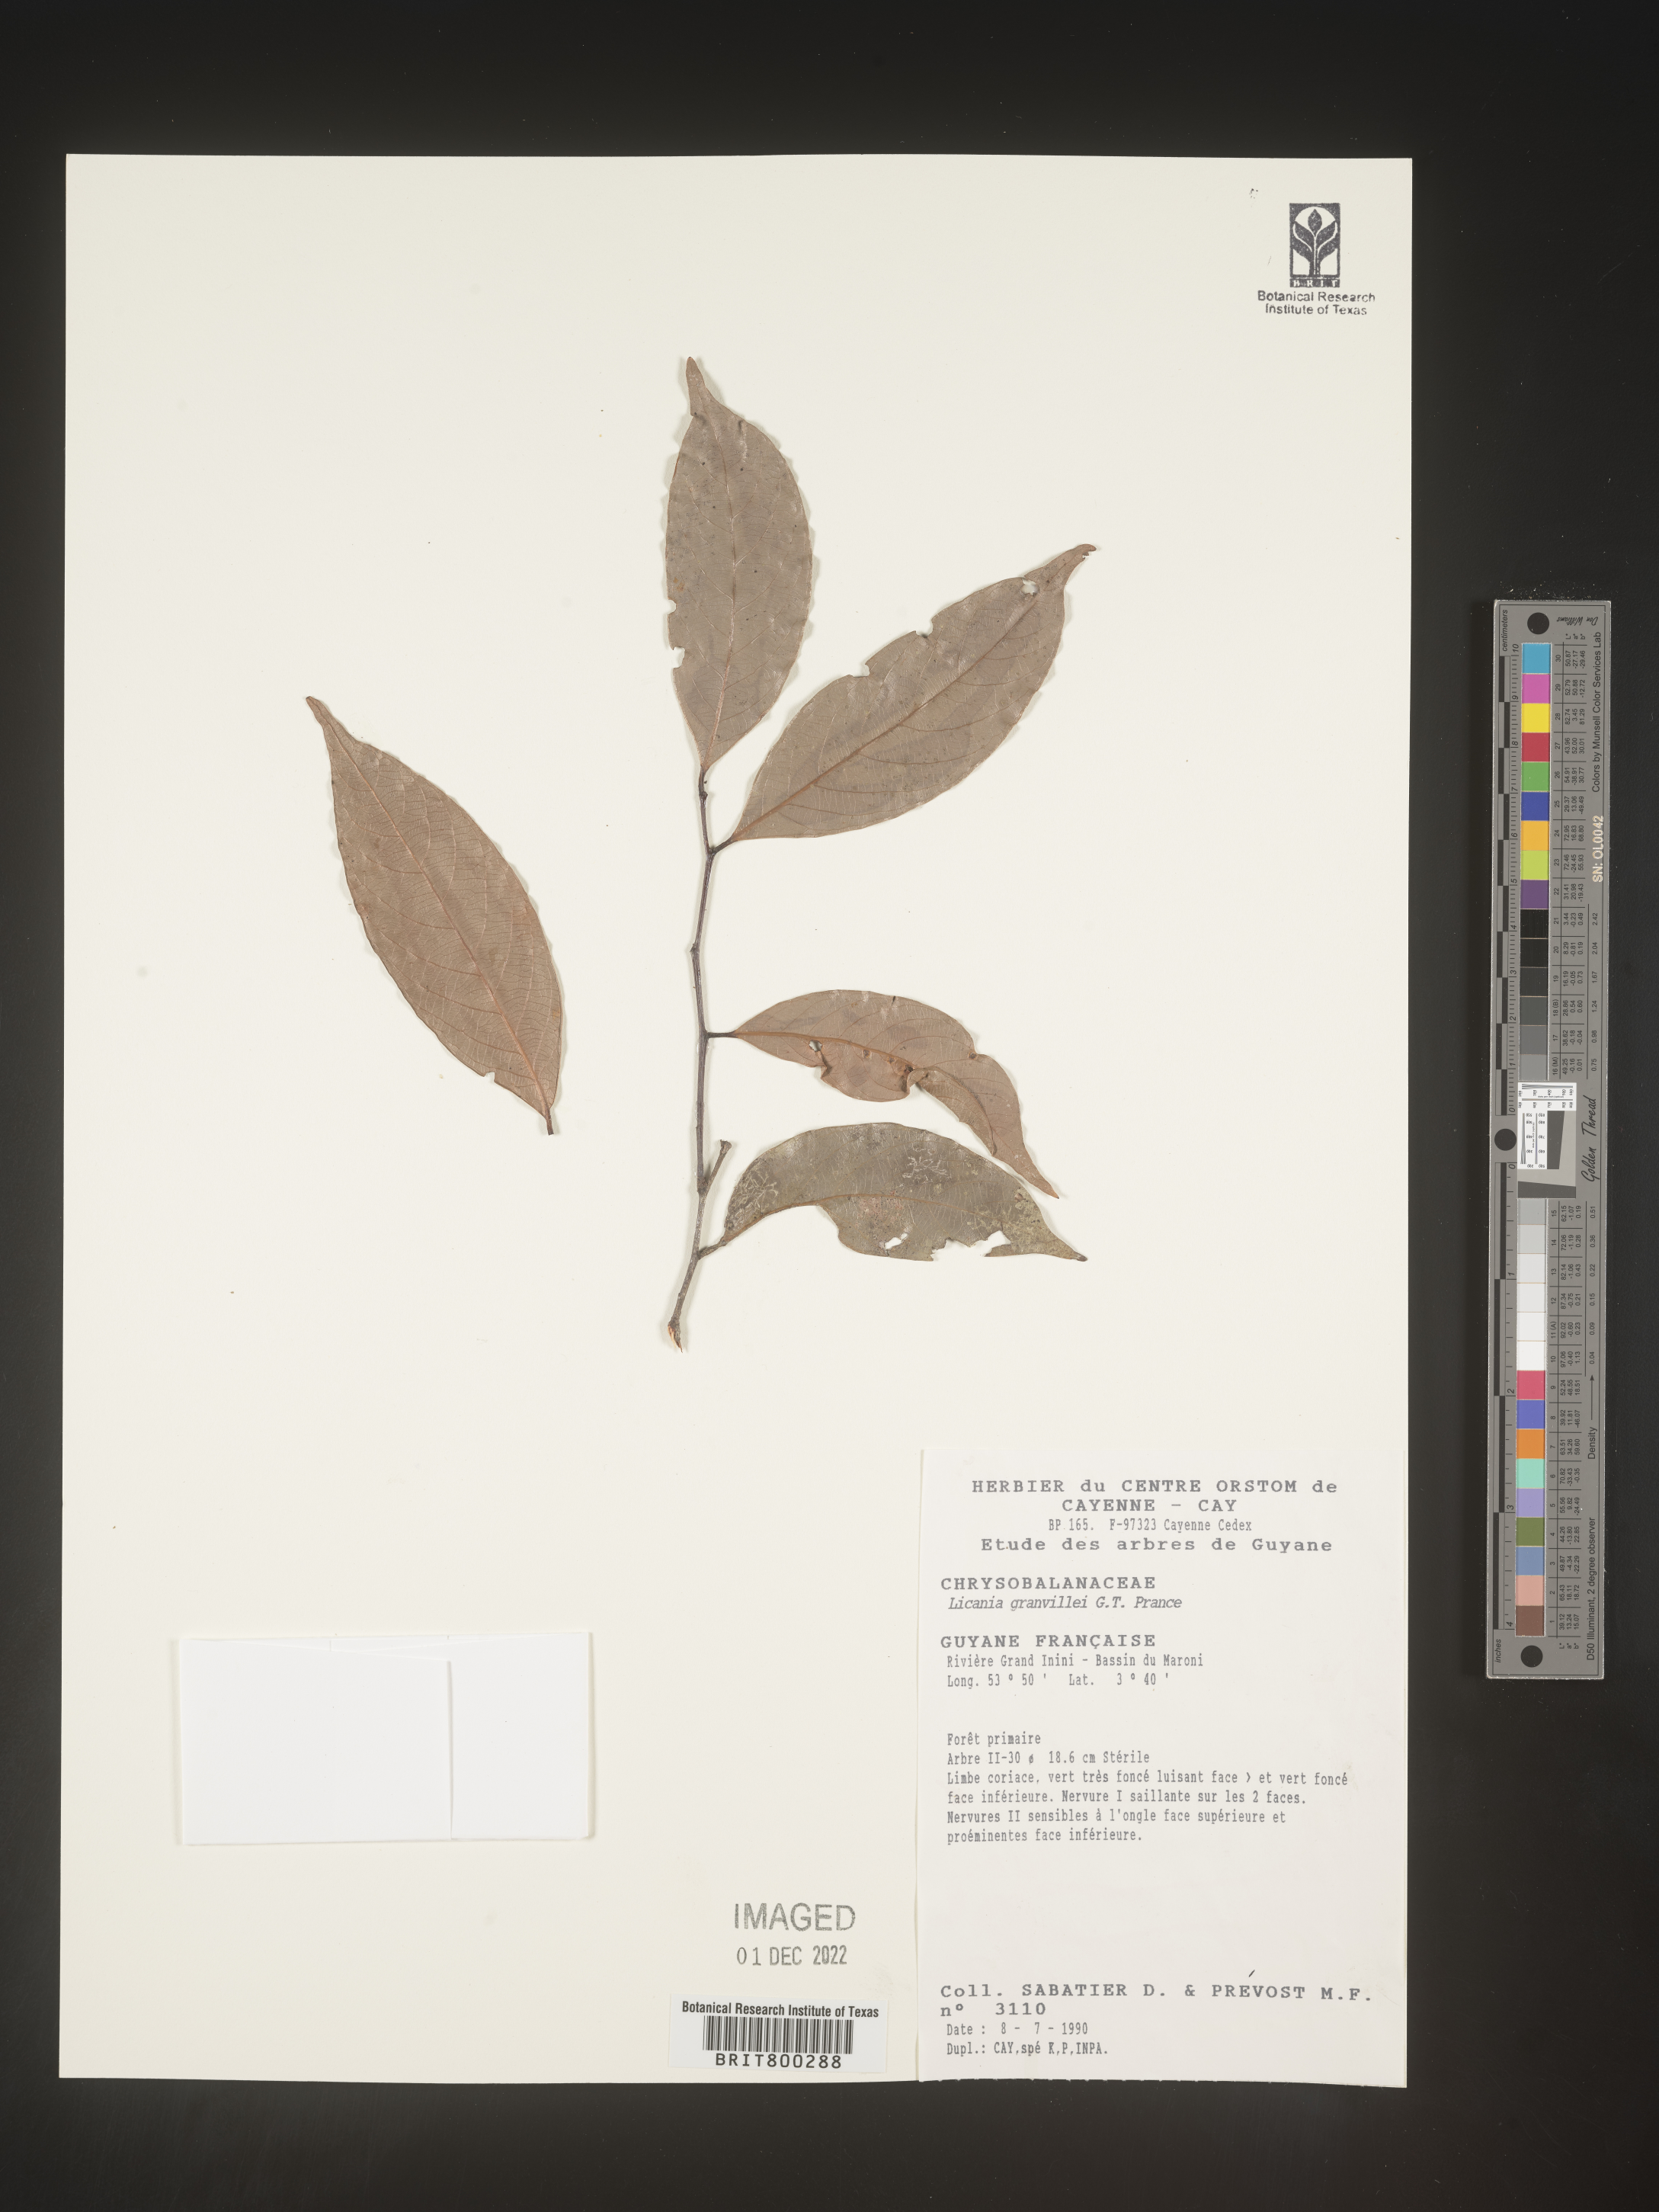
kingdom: Plantae
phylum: Tracheophyta
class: Magnoliopsida
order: Malpighiales
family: Chrysobalanaceae
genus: Geobalanus
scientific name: Geobalanus oblongifolius
